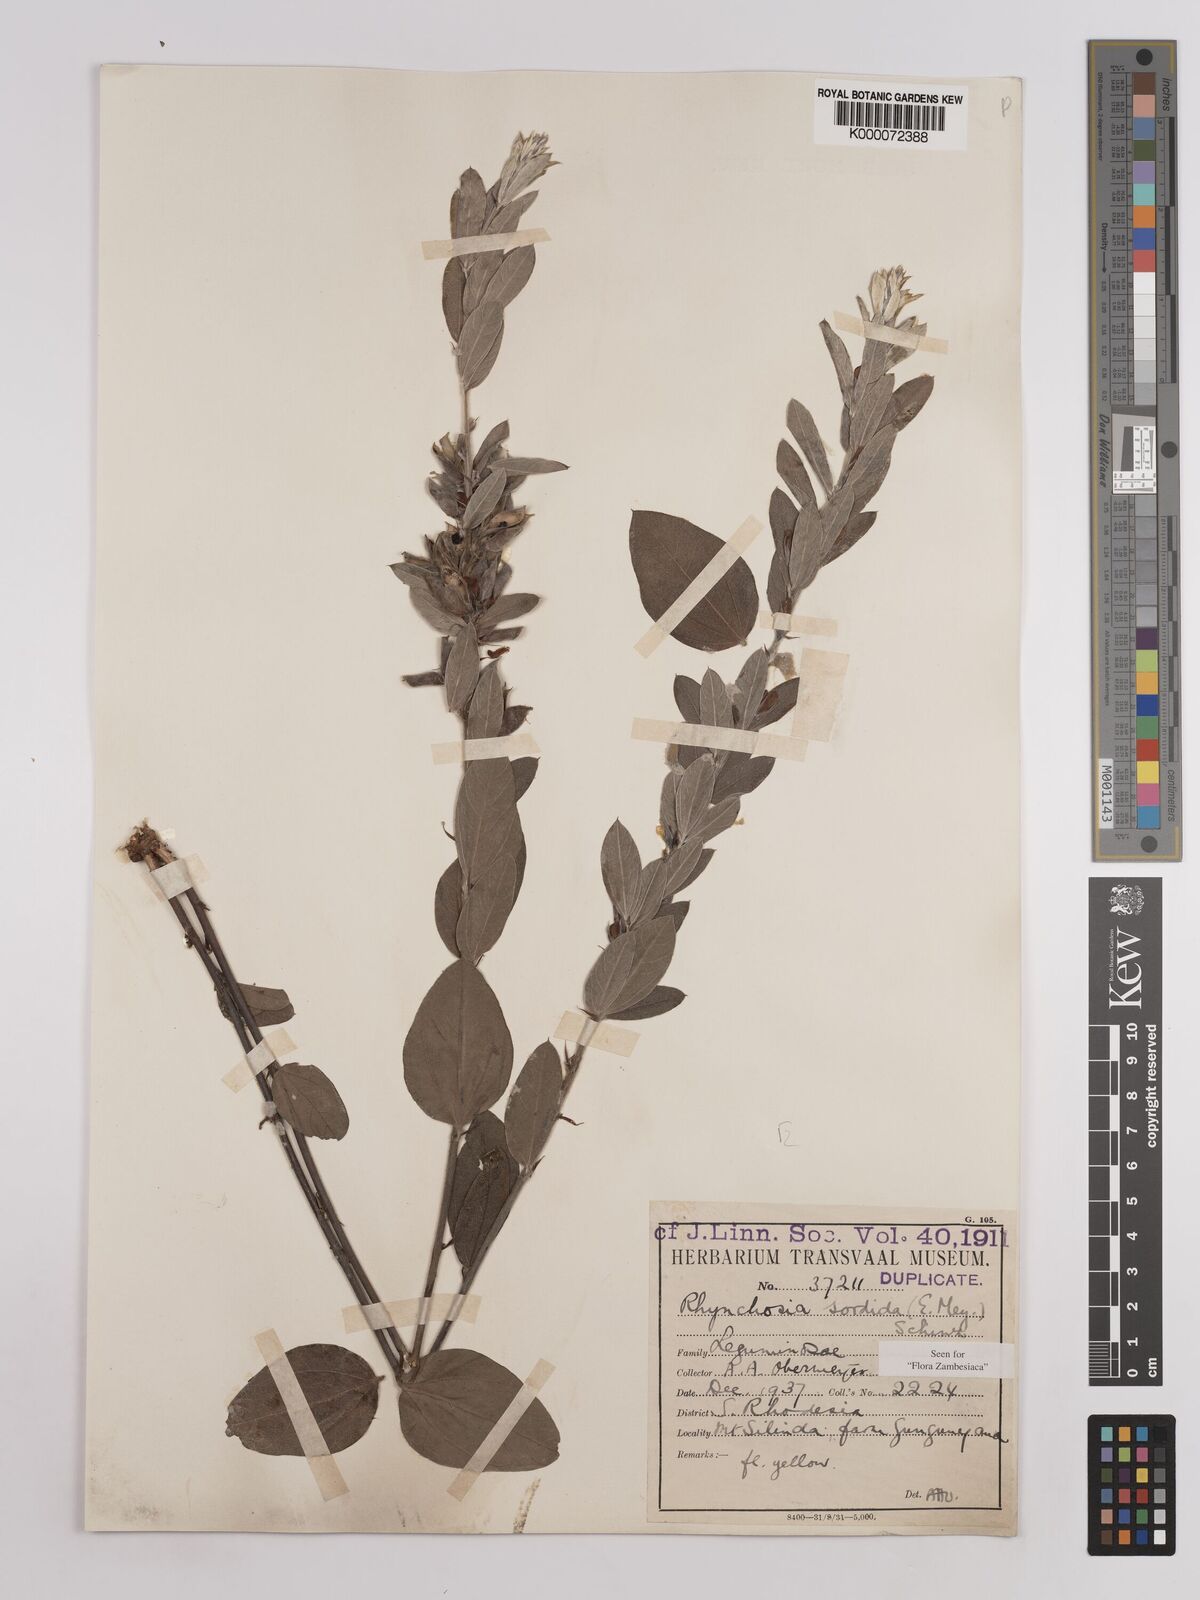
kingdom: Plantae
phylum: Tracheophyta
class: Magnoliopsida
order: Fabales
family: Fabaceae
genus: Rhynchosia
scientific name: Rhynchosia sordida
